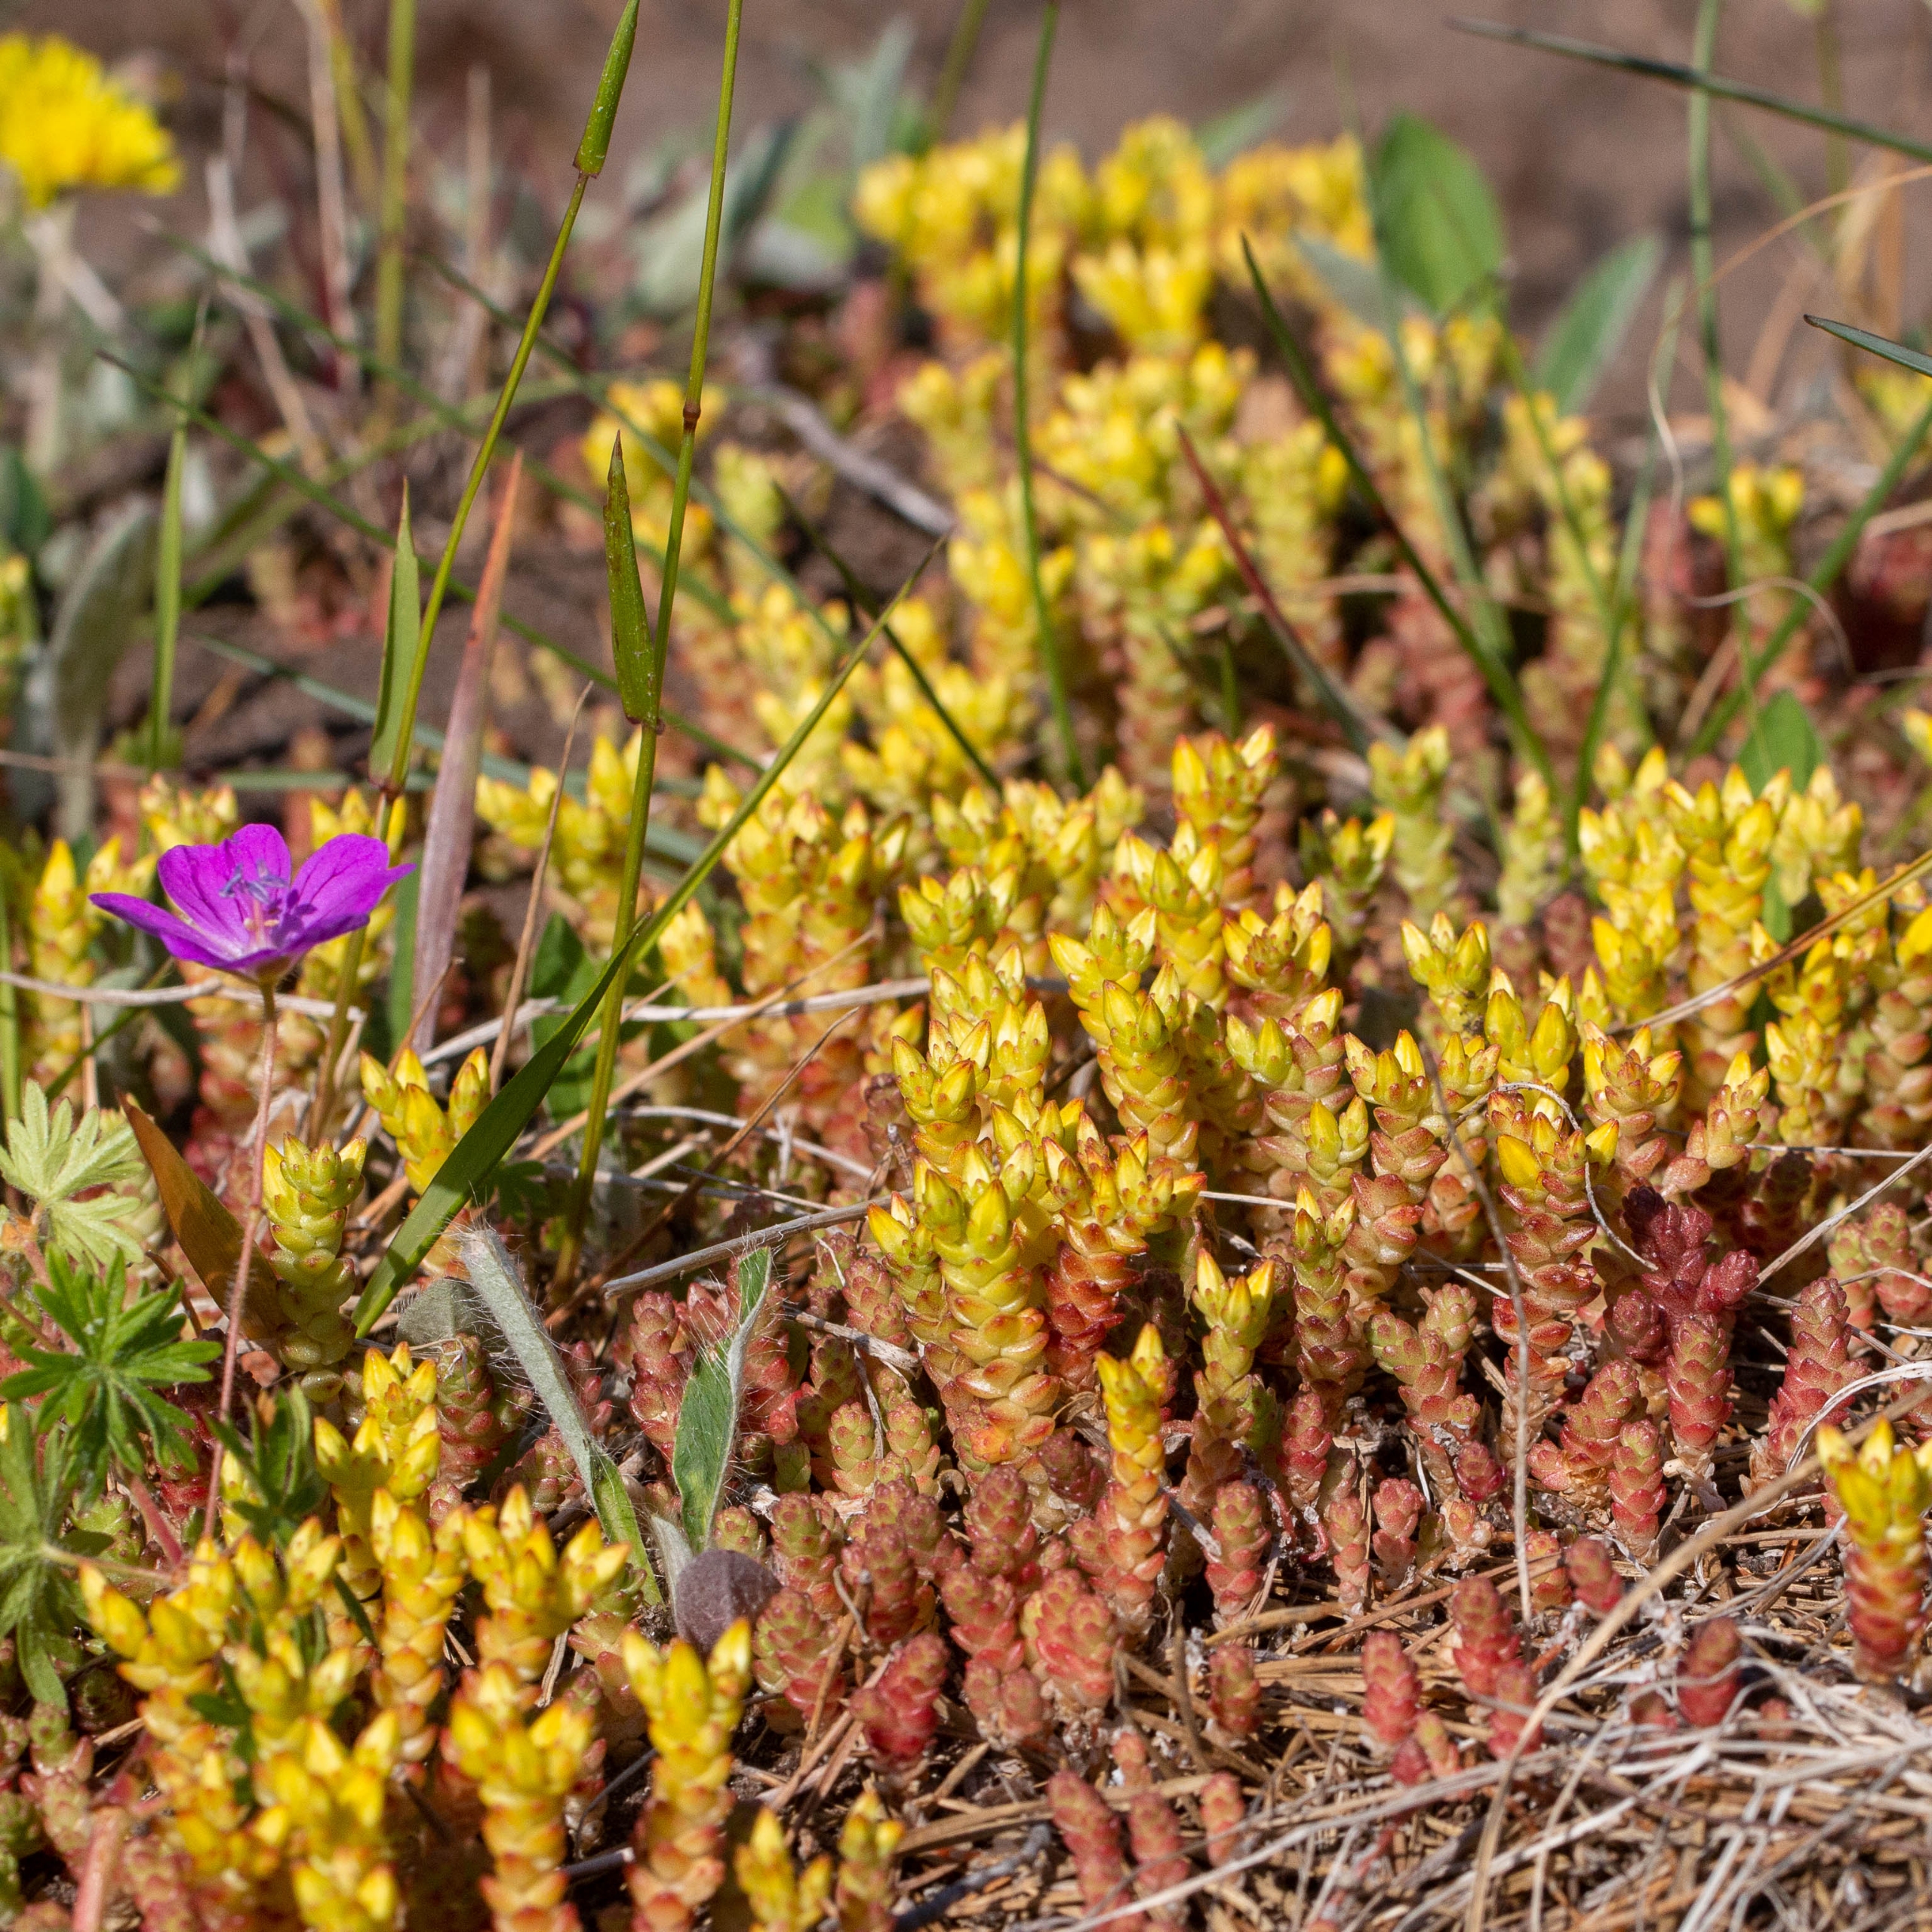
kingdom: Plantae
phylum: Tracheophyta
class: Magnoliopsida
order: Saxifragales
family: Crassulaceae
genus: Sedum
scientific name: Sedum acre
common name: Bidende stenurt
